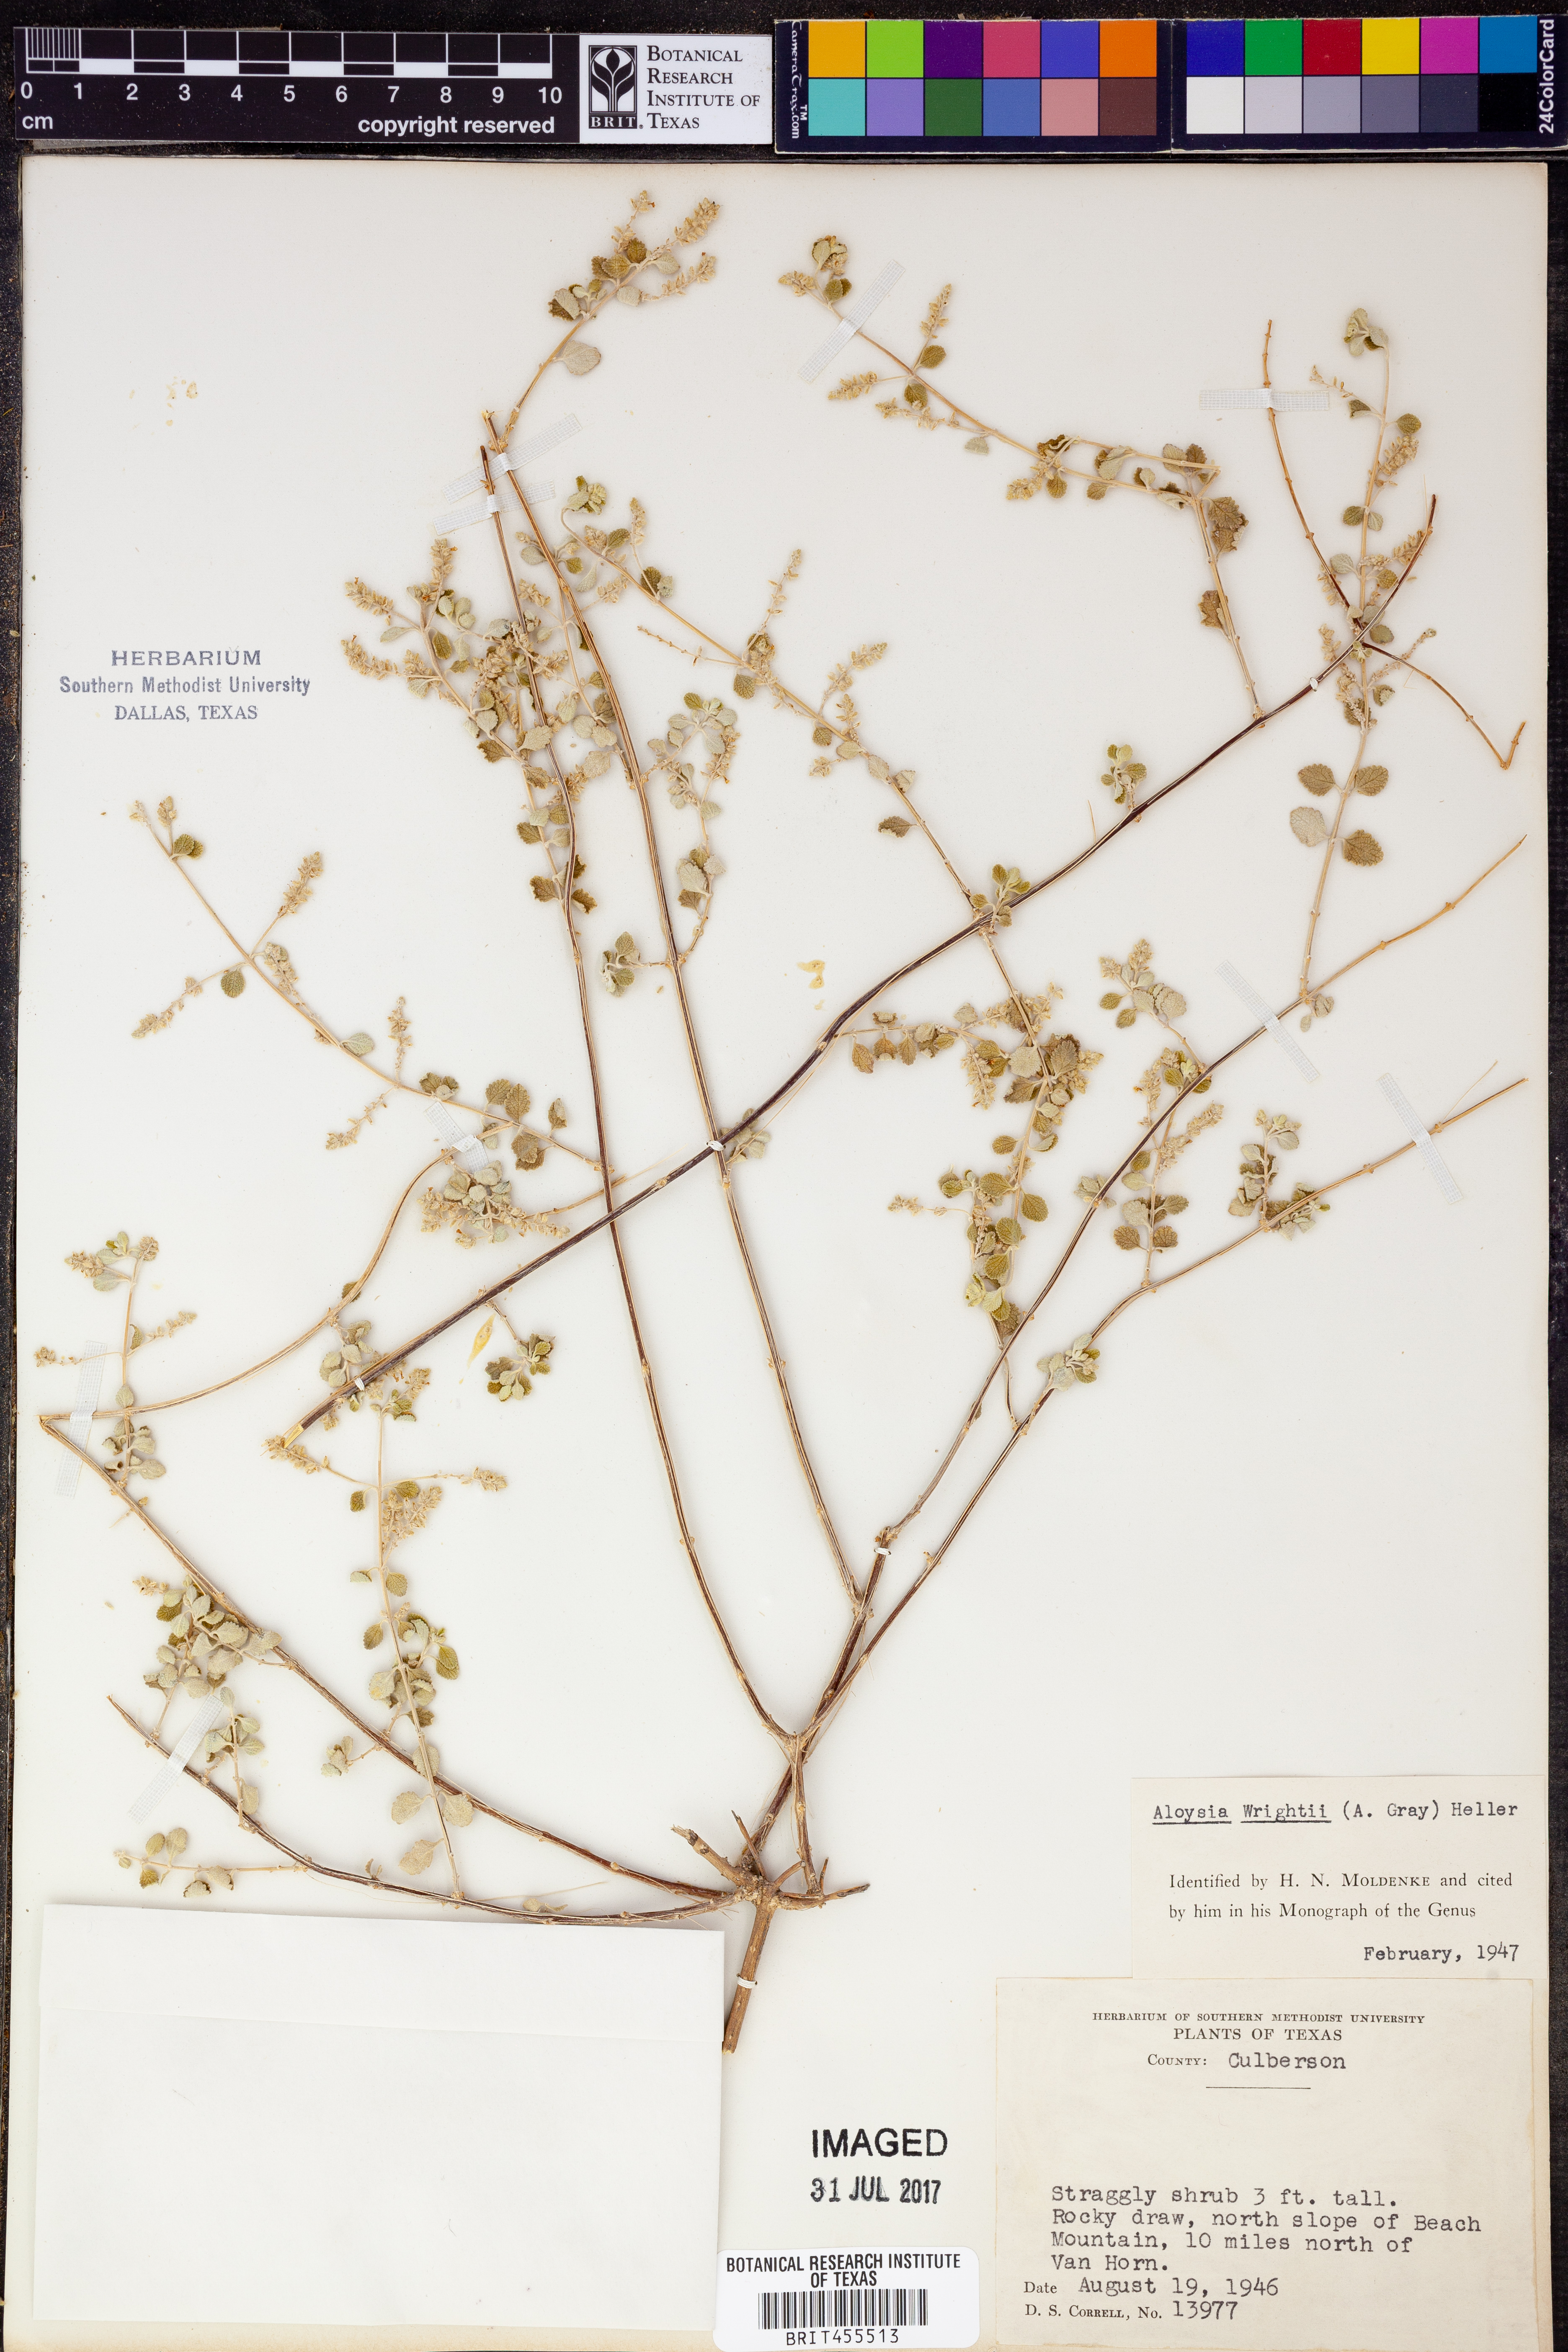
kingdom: Plantae
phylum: Tracheophyta
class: Magnoliopsida
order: Lamiales
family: Verbenaceae
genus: Aloysia
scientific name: Aloysia wrightii
